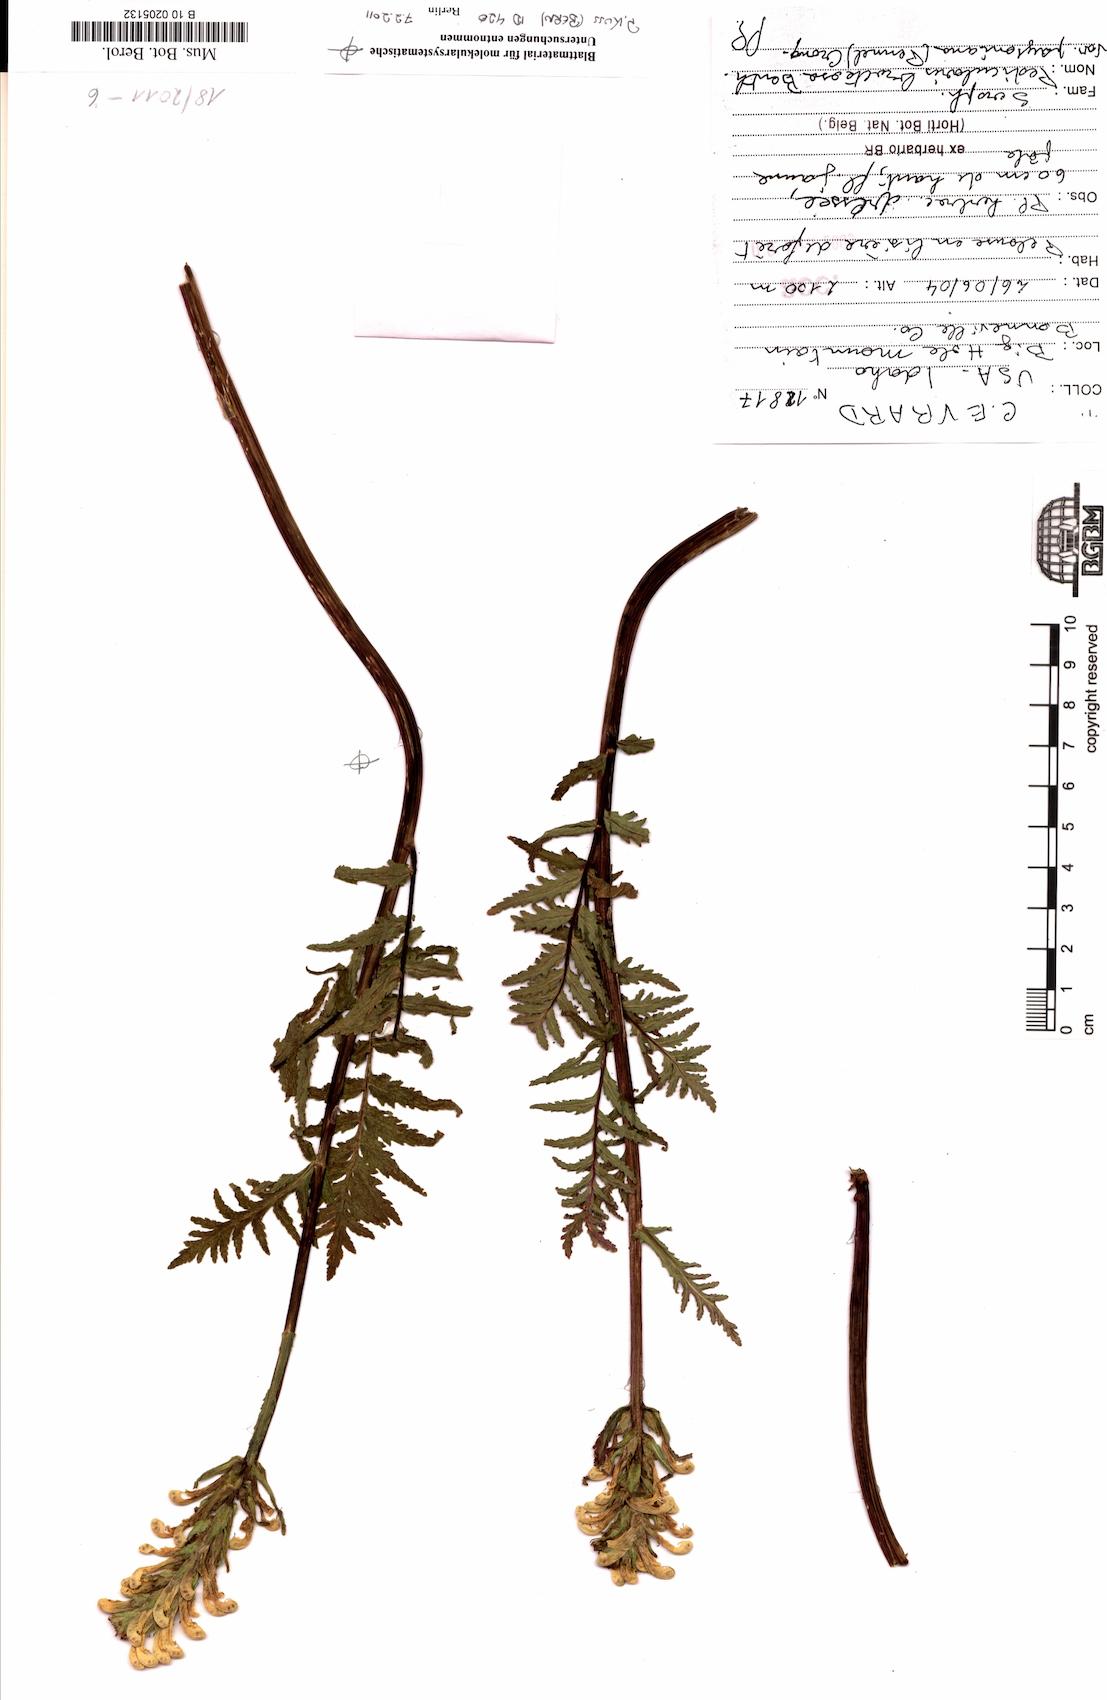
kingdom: Plantae
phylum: Tracheophyta
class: Magnoliopsida
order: Lamiales
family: Orobanchaceae
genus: Pedicularis
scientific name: Pedicularis bracteosa
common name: Bracted lousewort
